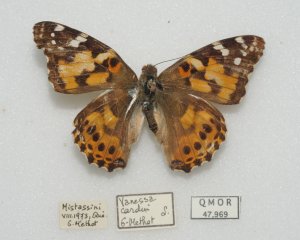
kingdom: Animalia
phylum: Arthropoda
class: Insecta
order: Lepidoptera
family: Nymphalidae
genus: Vanessa
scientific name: Vanessa cardui
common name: Painted Lady
